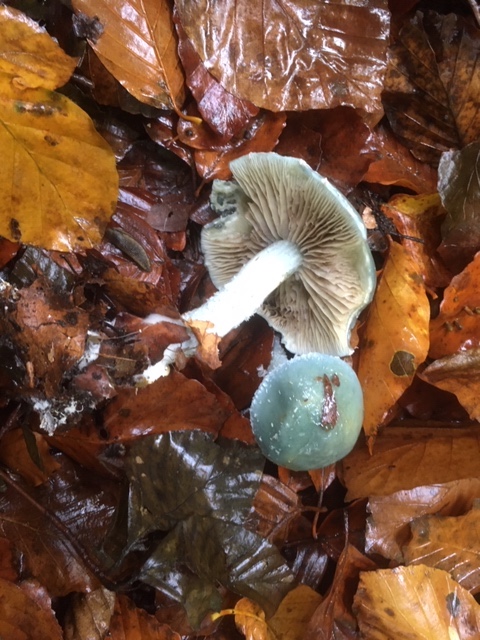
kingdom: Fungi
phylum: Basidiomycota
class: Agaricomycetes
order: Agaricales
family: Strophariaceae
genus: Stropharia
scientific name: Stropharia cyanea
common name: blågrøn bredblad
